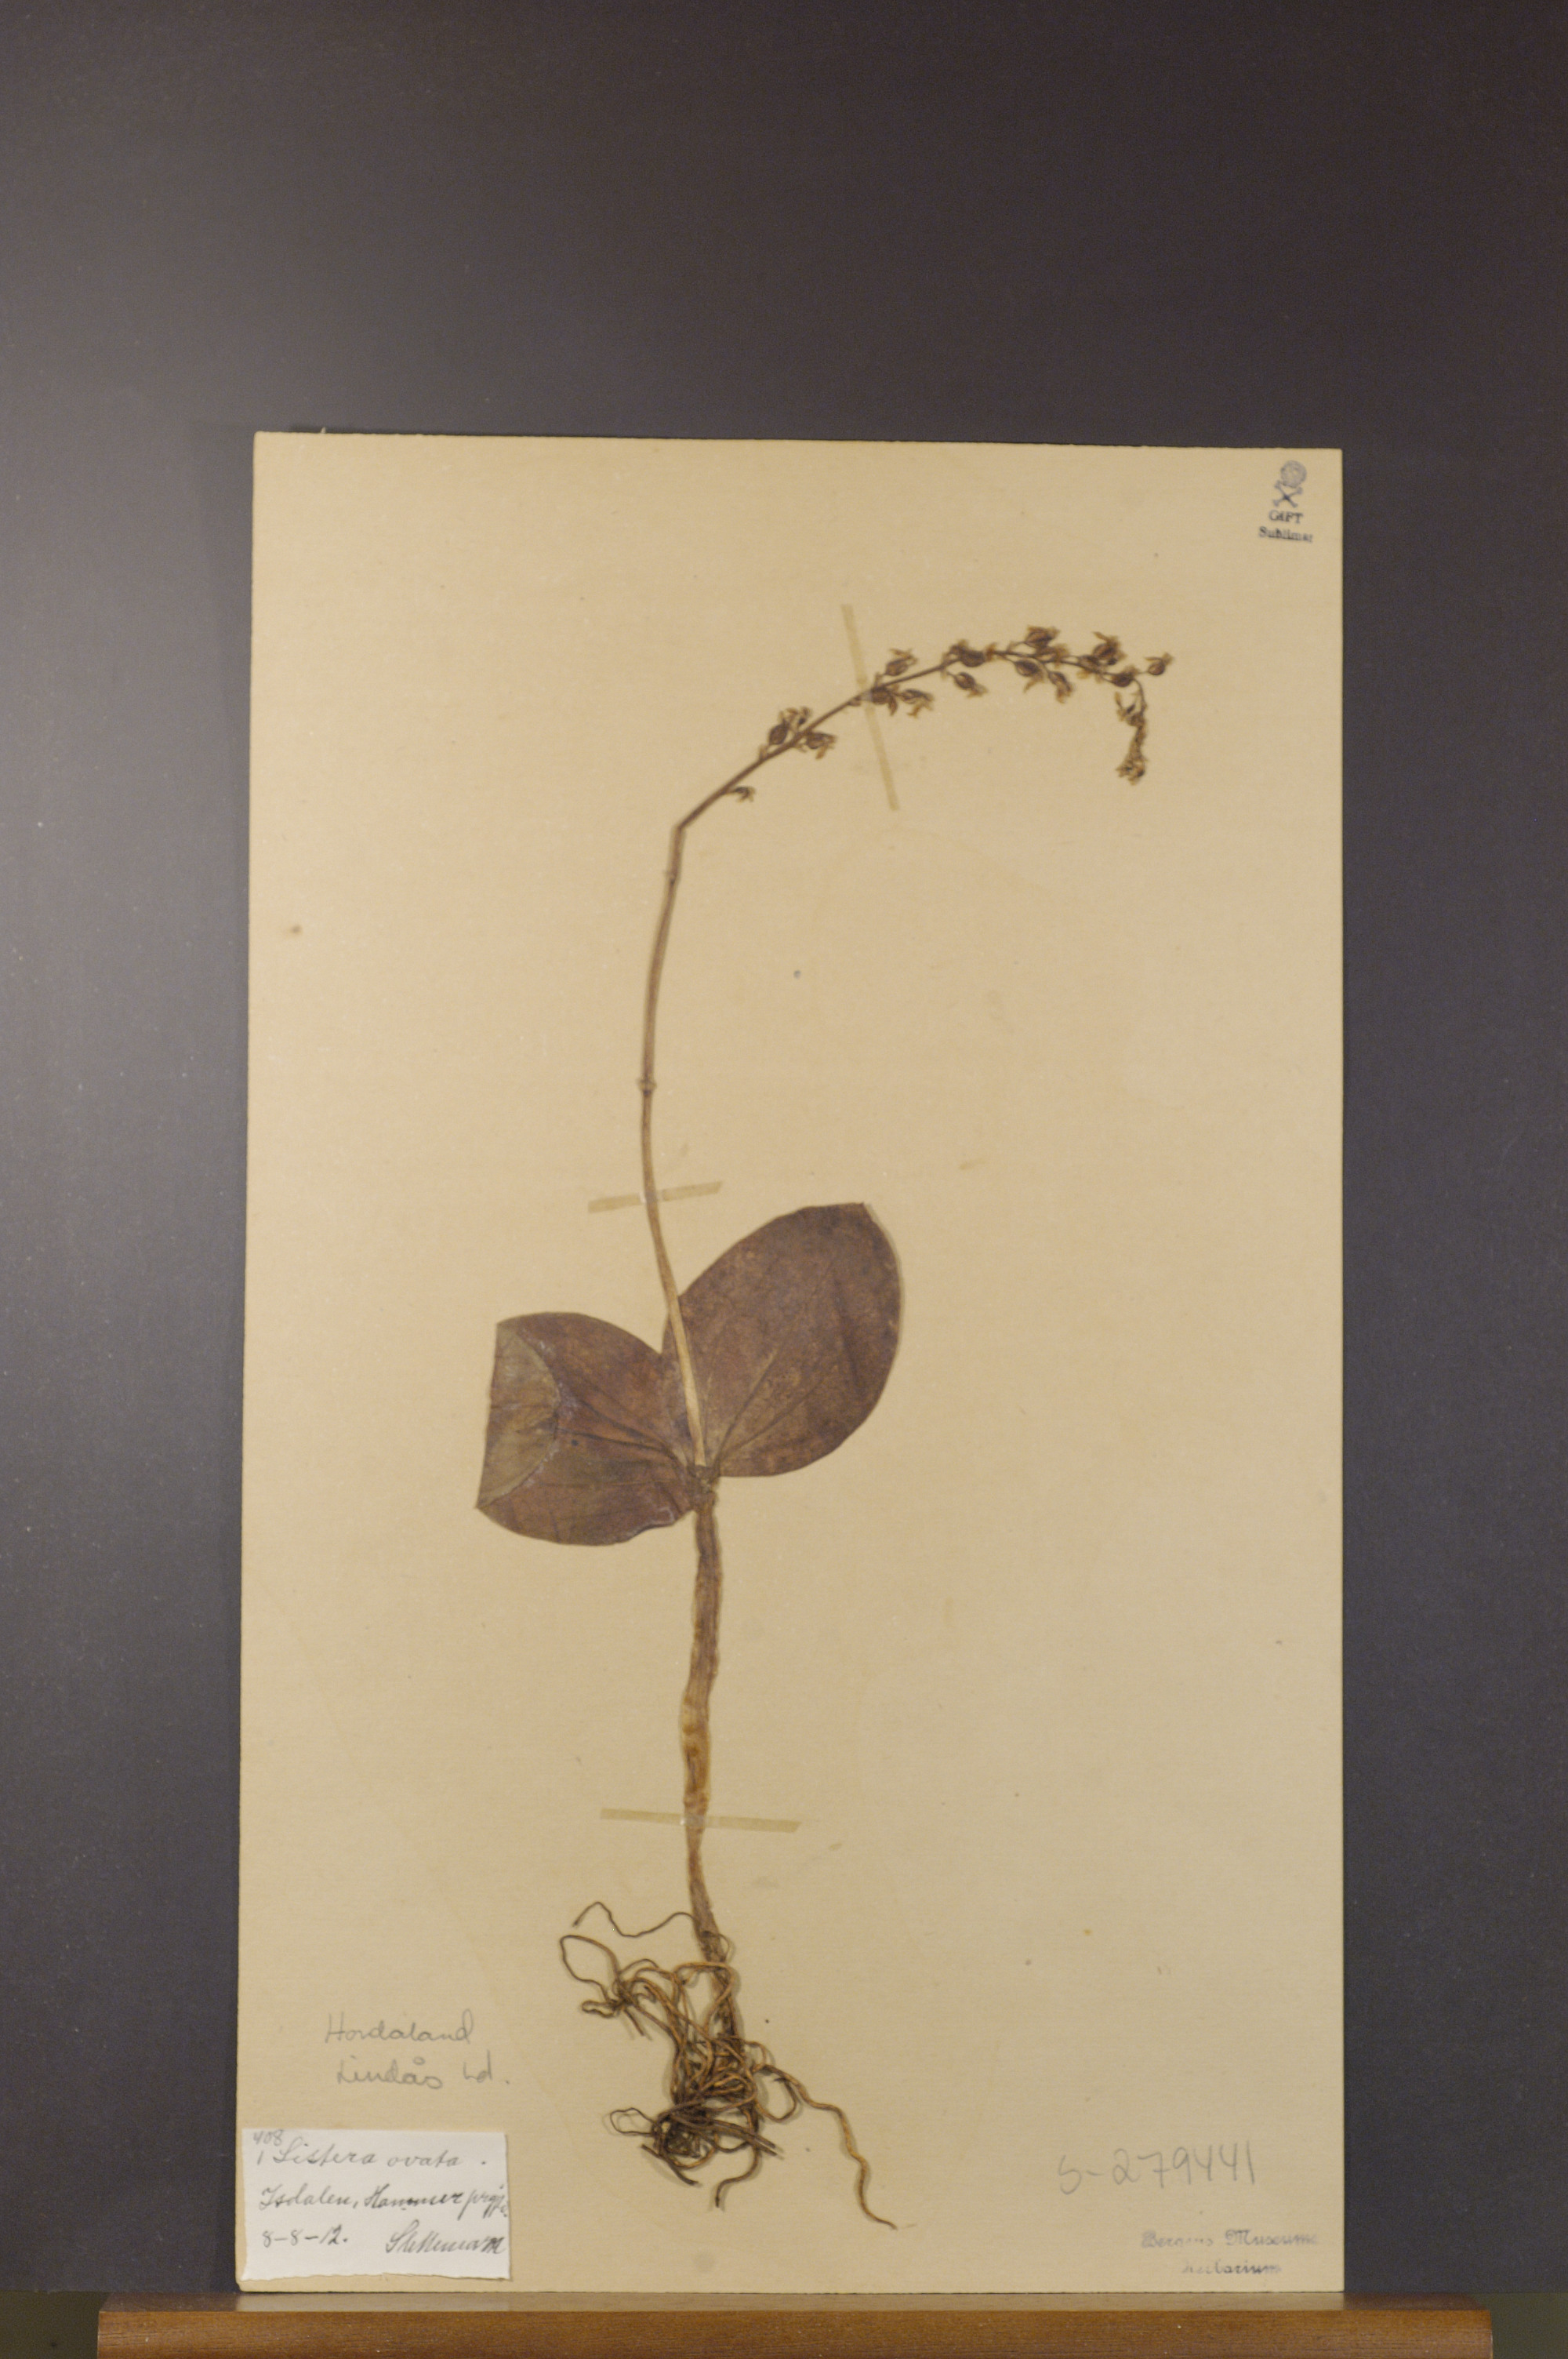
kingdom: Plantae
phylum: Tracheophyta
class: Liliopsida
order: Asparagales
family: Orchidaceae
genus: Neottia
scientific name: Neottia ovata
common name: Common twayblade
